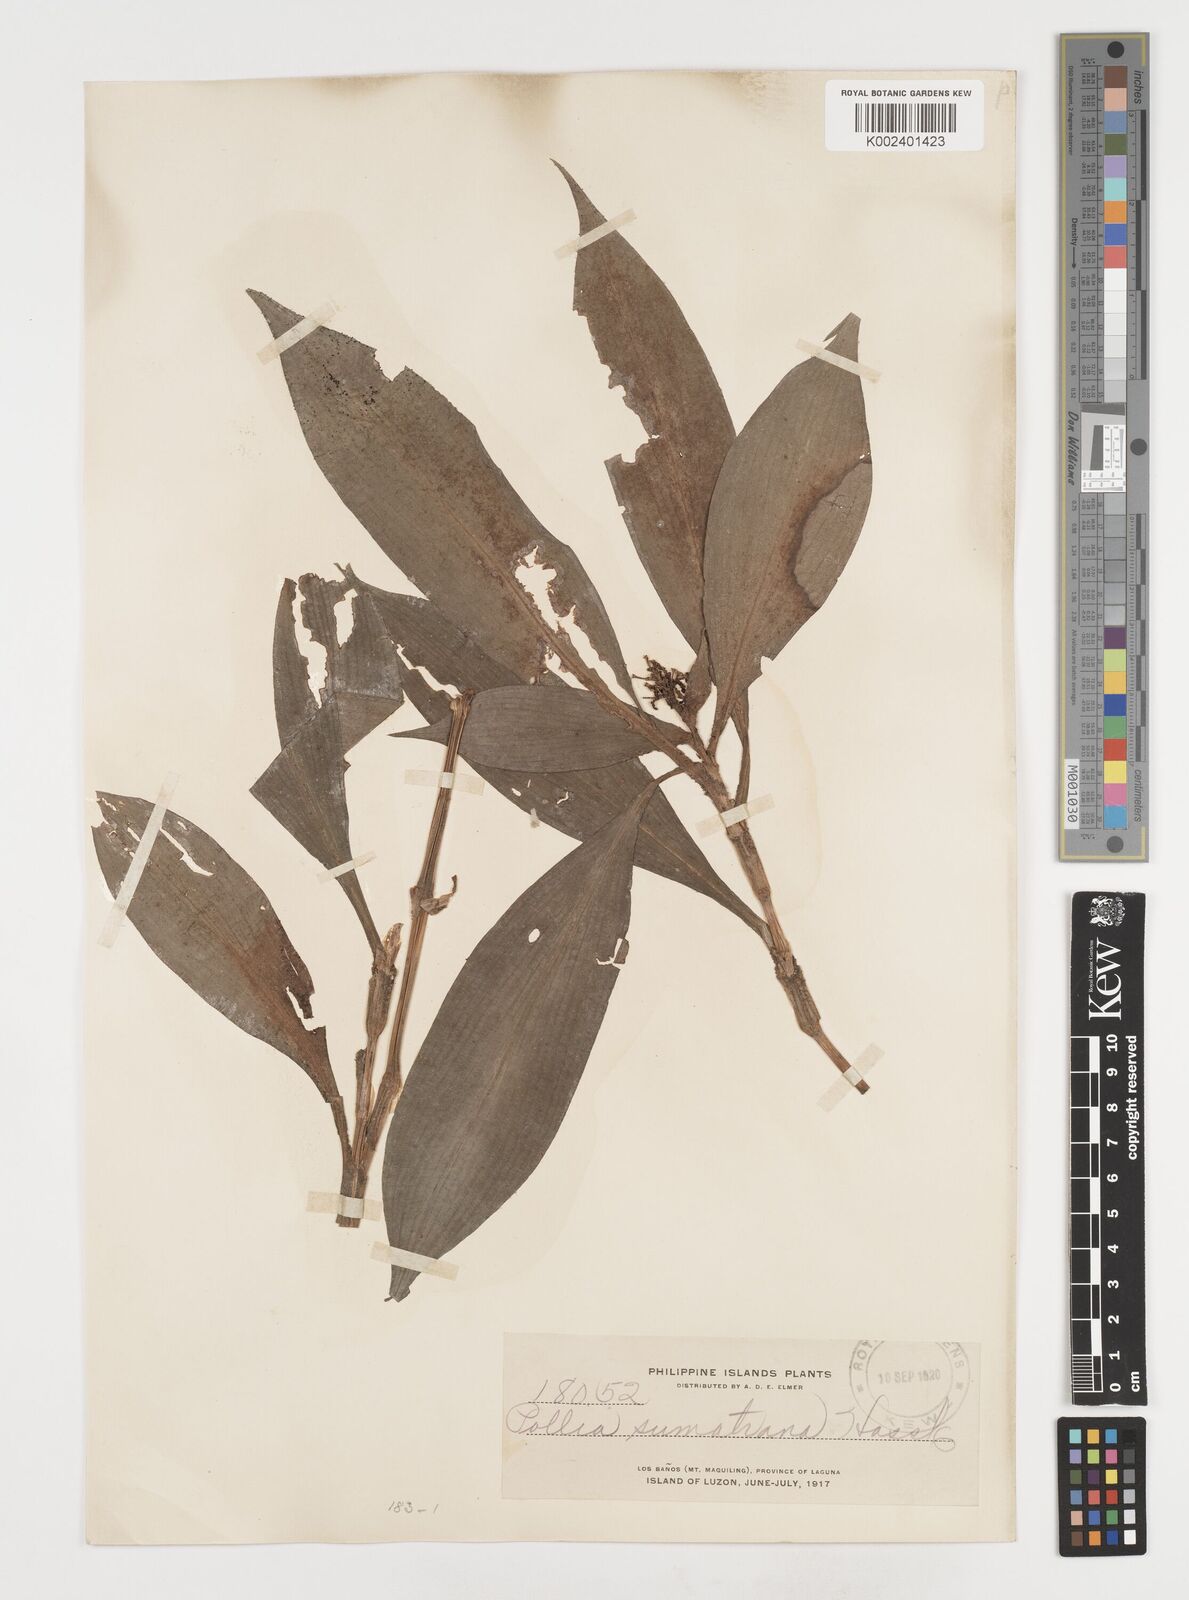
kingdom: Plantae
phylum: Tracheophyta
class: Liliopsida
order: Commelinales
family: Commelinaceae
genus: Pollia
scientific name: Pollia sumatrana
